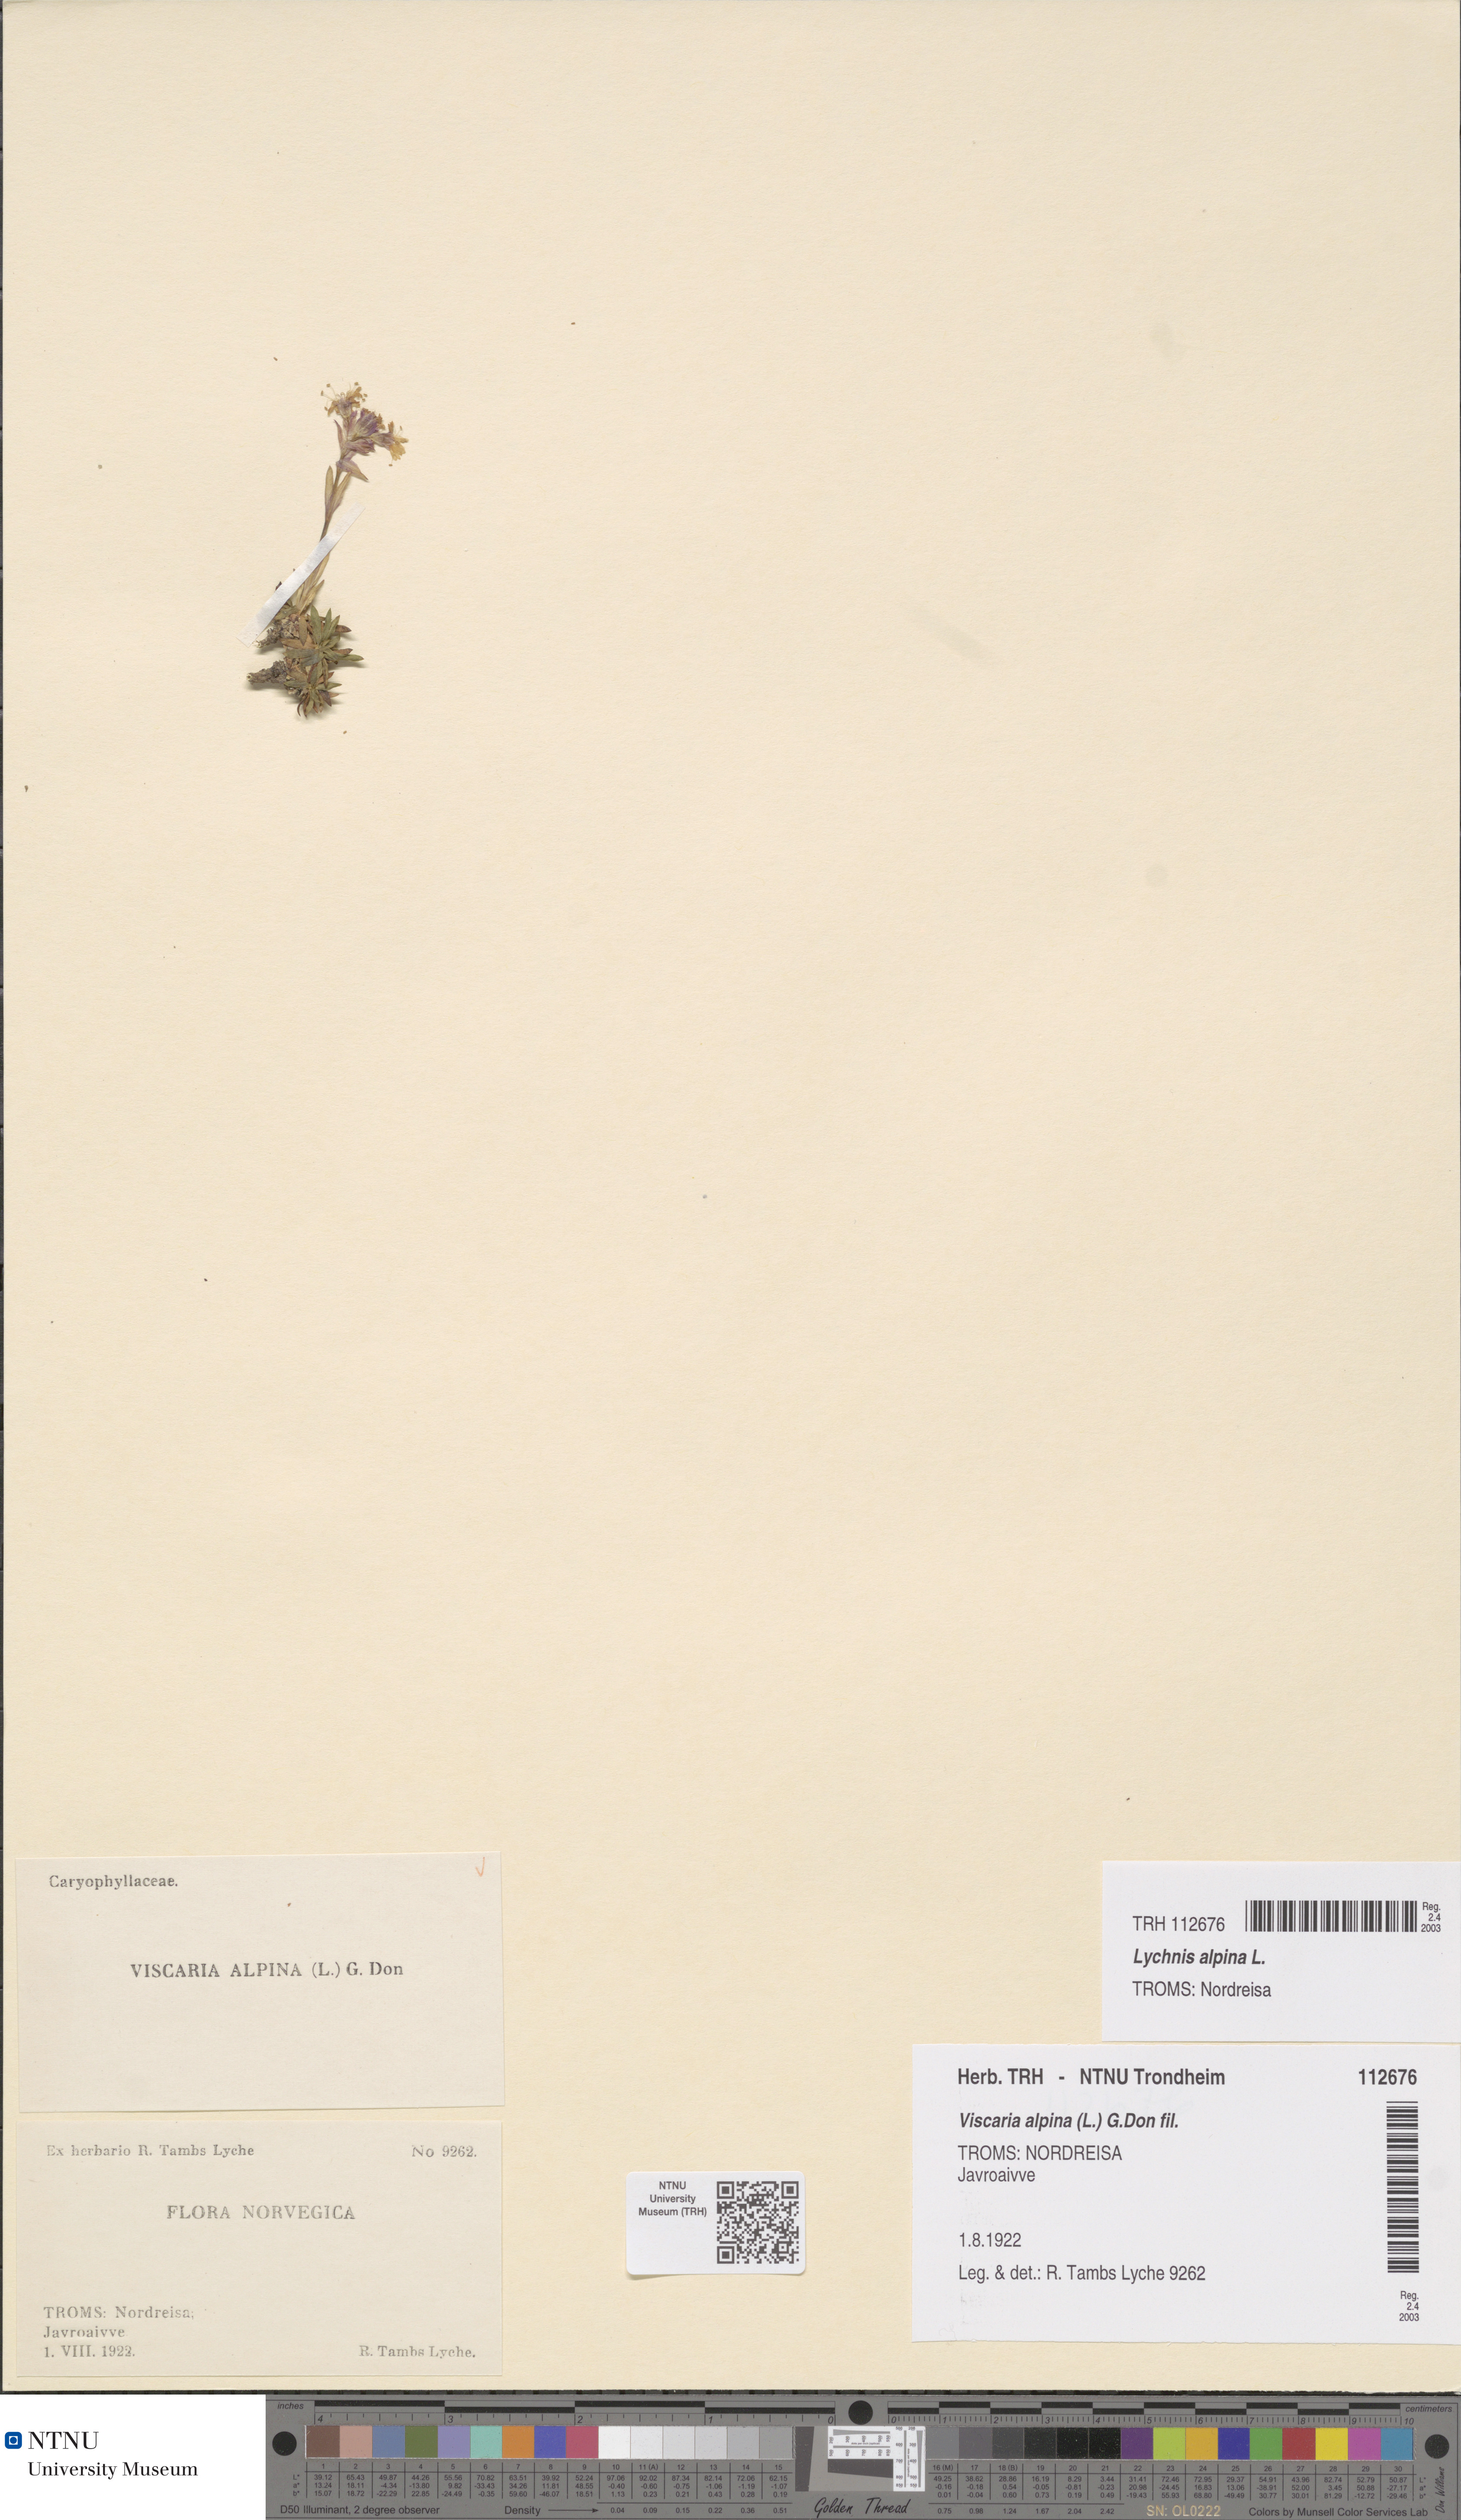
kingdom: Plantae
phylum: Tracheophyta
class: Magnoliopsida
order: Caryophyllales
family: Caryophyllaceae
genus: Viscaria
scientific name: Viscaria alpina
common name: Alpine campion
